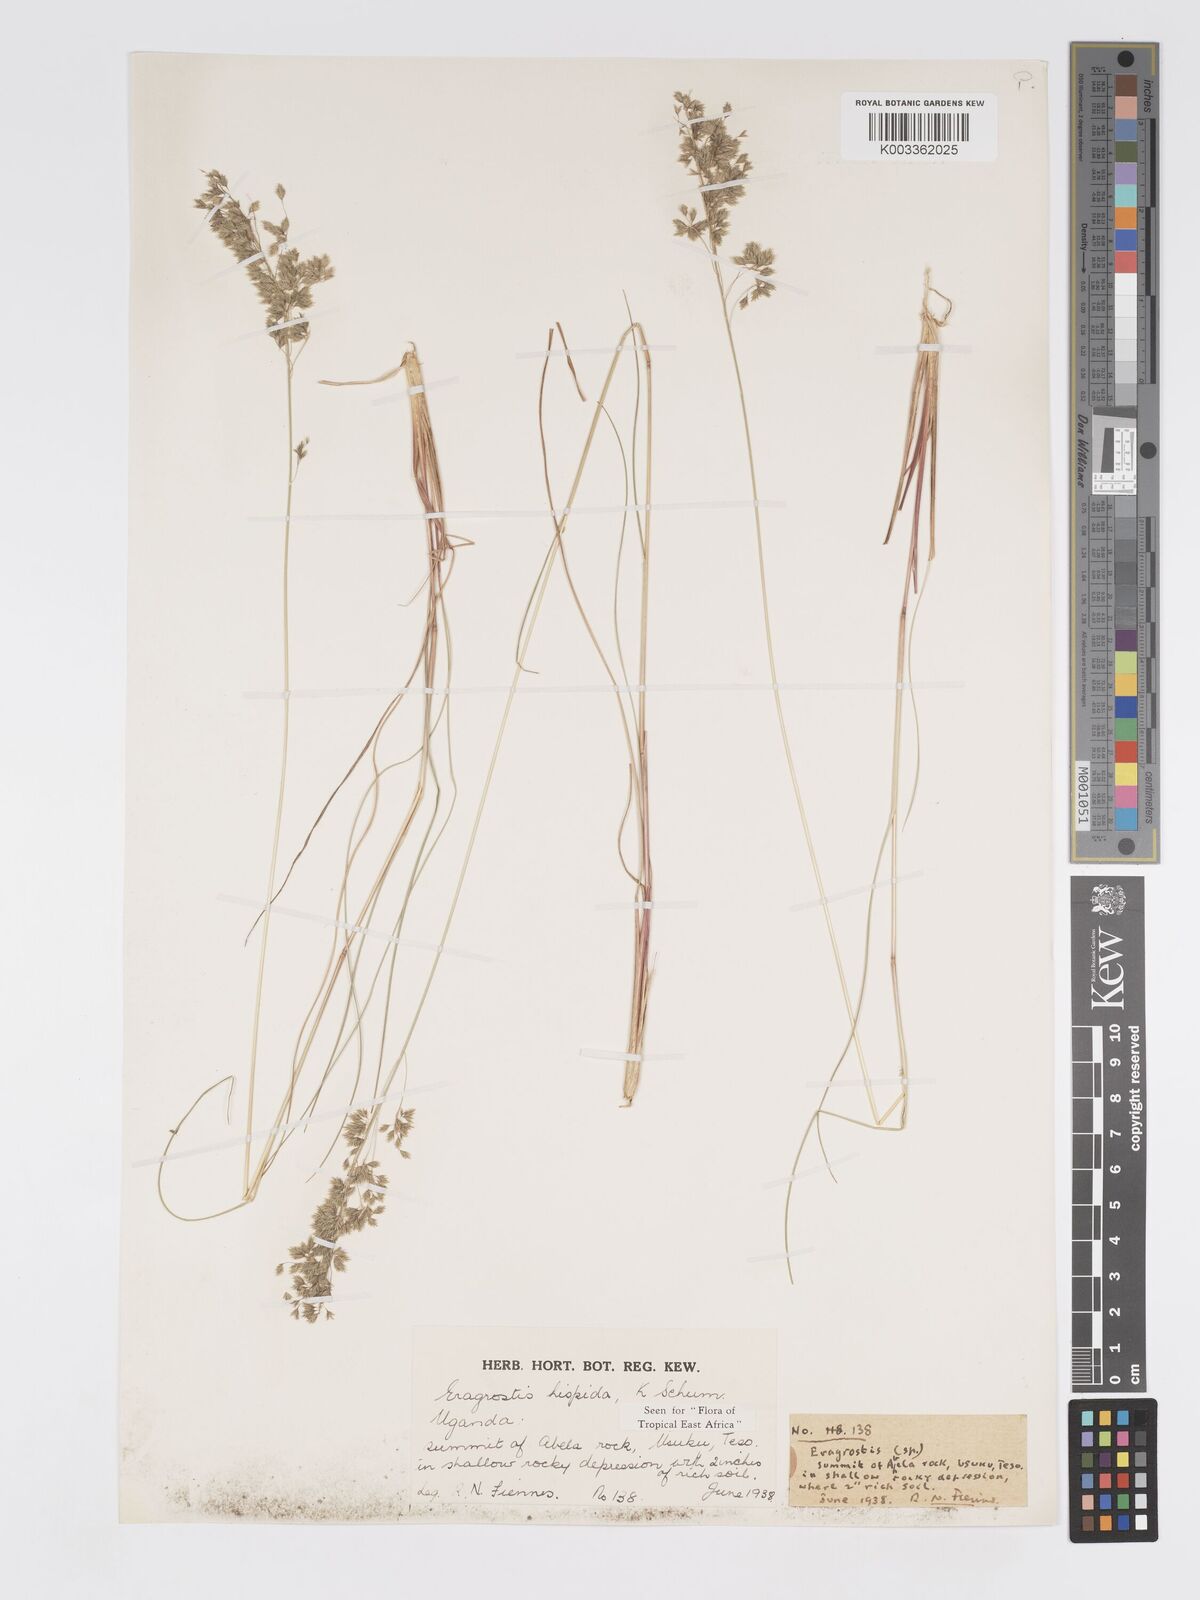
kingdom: Plantae
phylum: Tracheophyta
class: Liliopsida
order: Poales
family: Poaceae
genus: Eragrostis
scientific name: Eragrostis hispida
